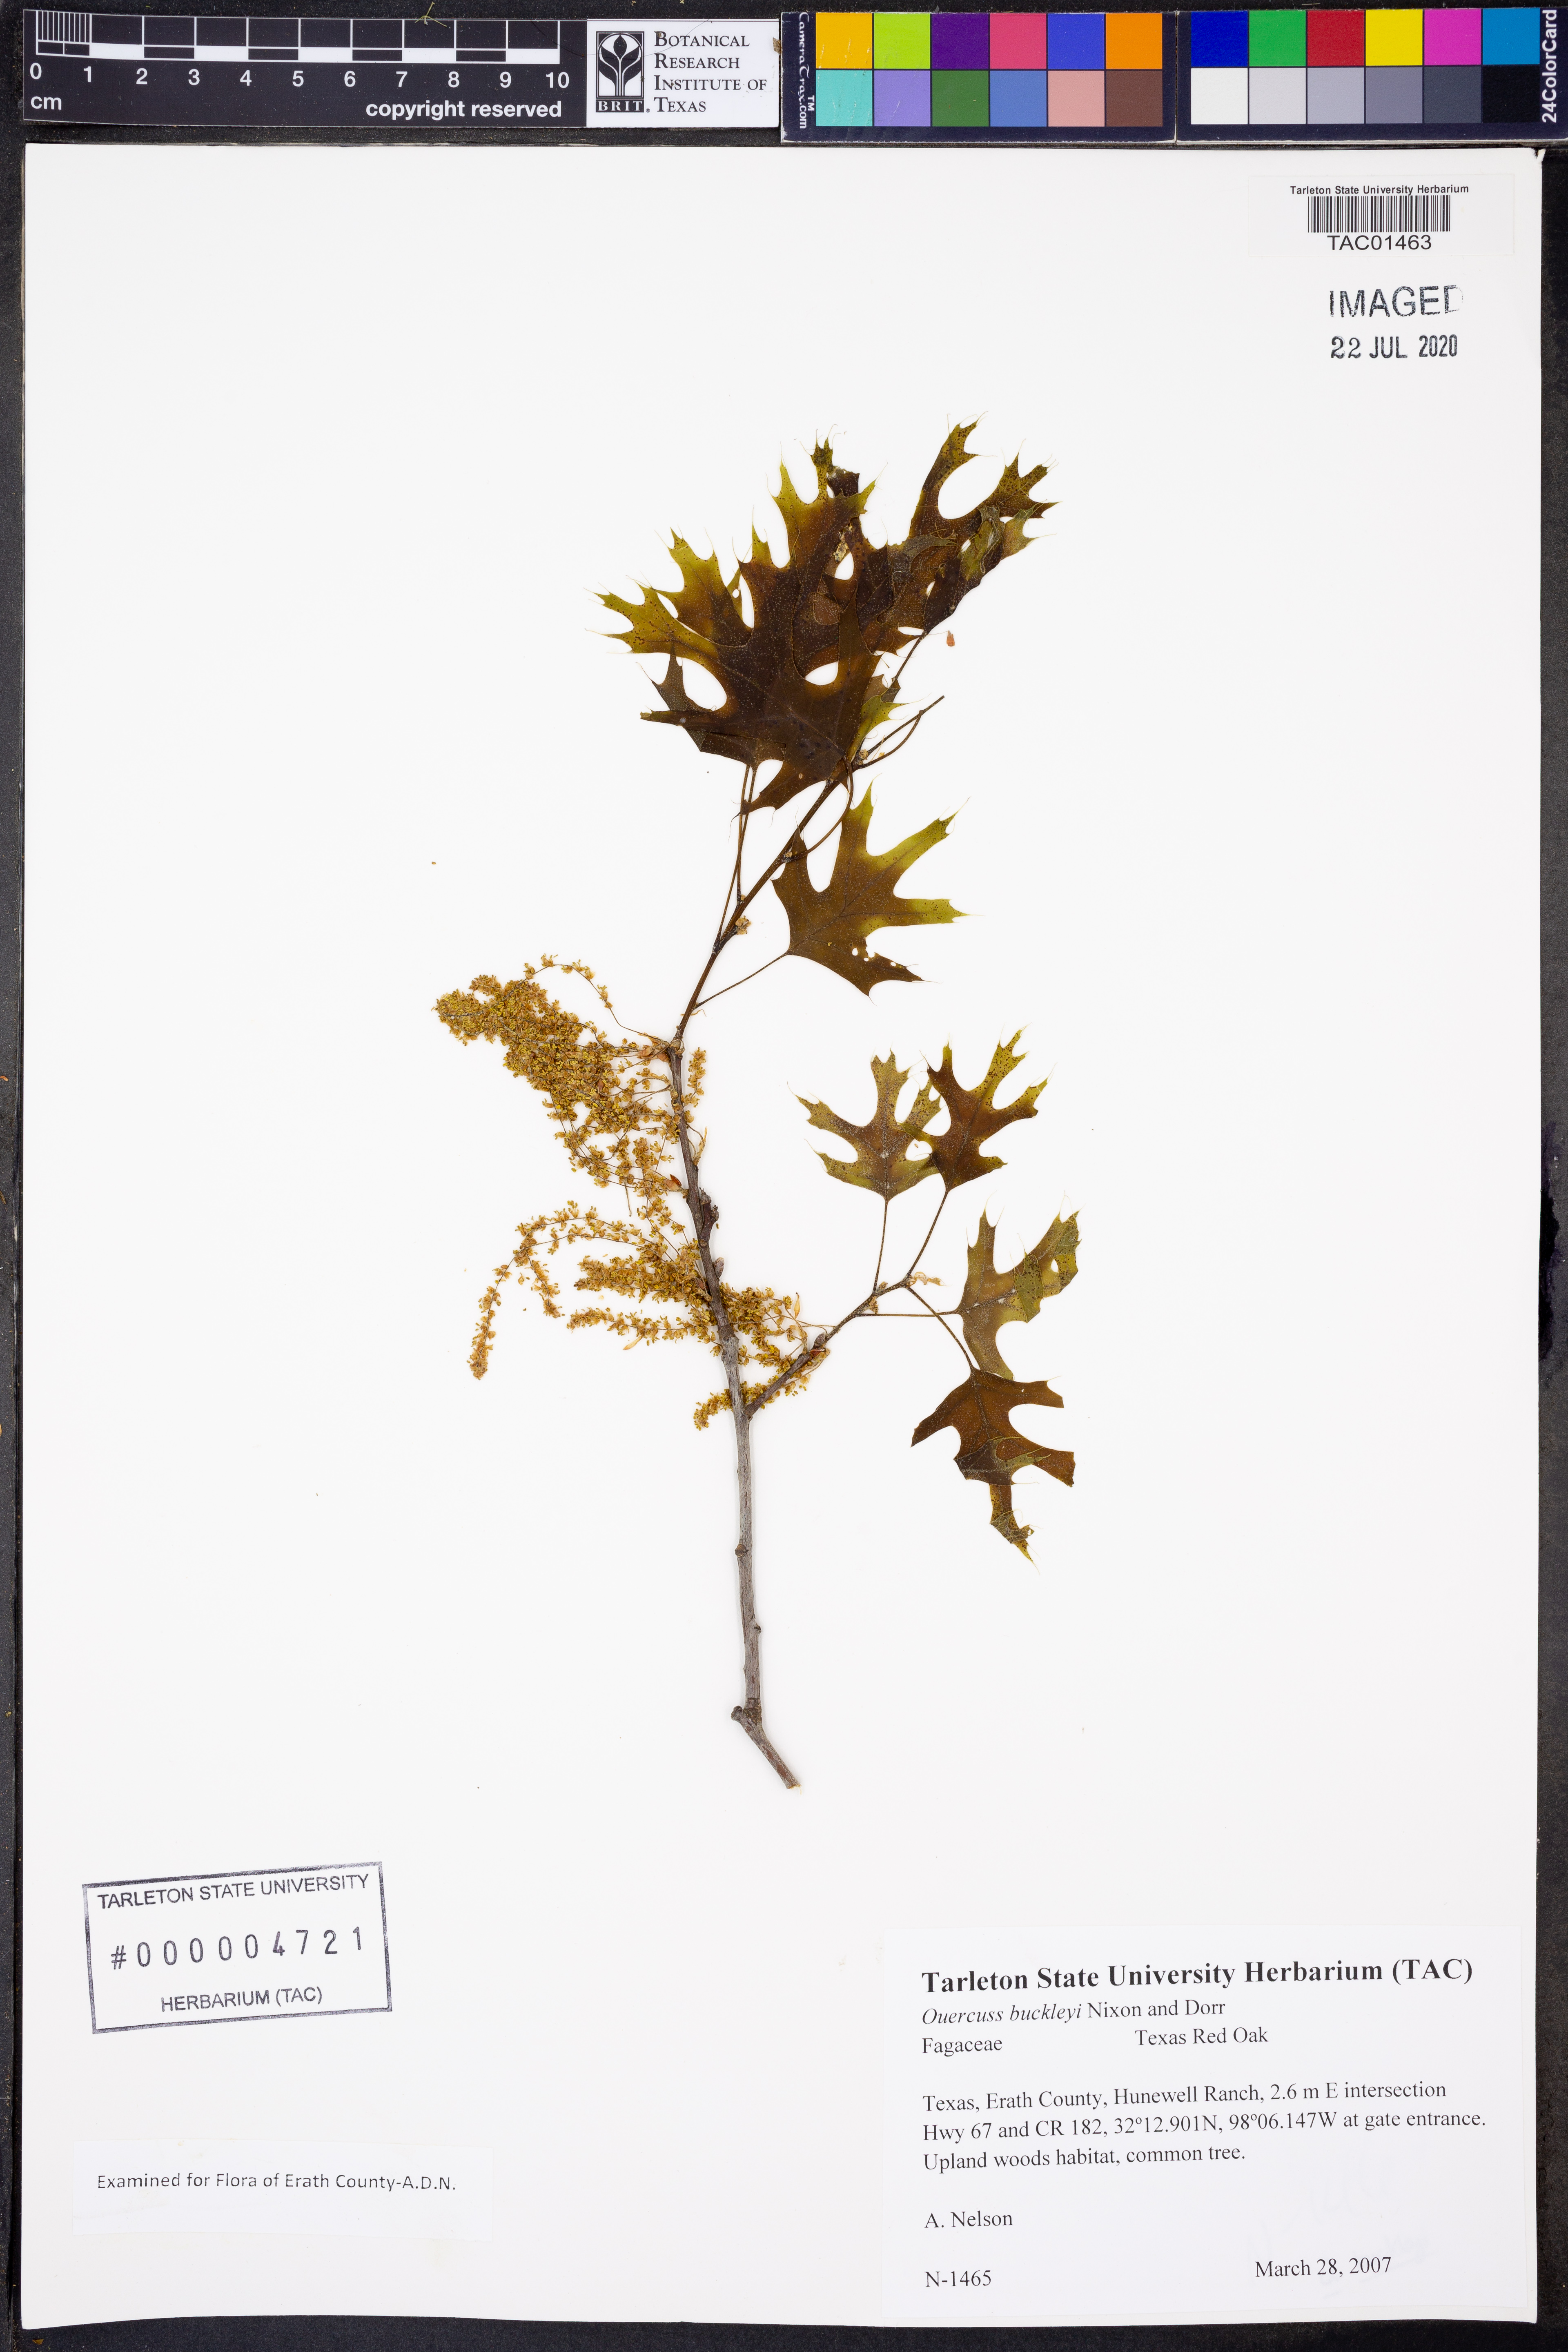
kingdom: Plantae
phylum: Tracheophyta
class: Magnoliopsida
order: Fagales
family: Fagaceae
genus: Quercus
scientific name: Quercus buckleyi
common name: Buckley oak
